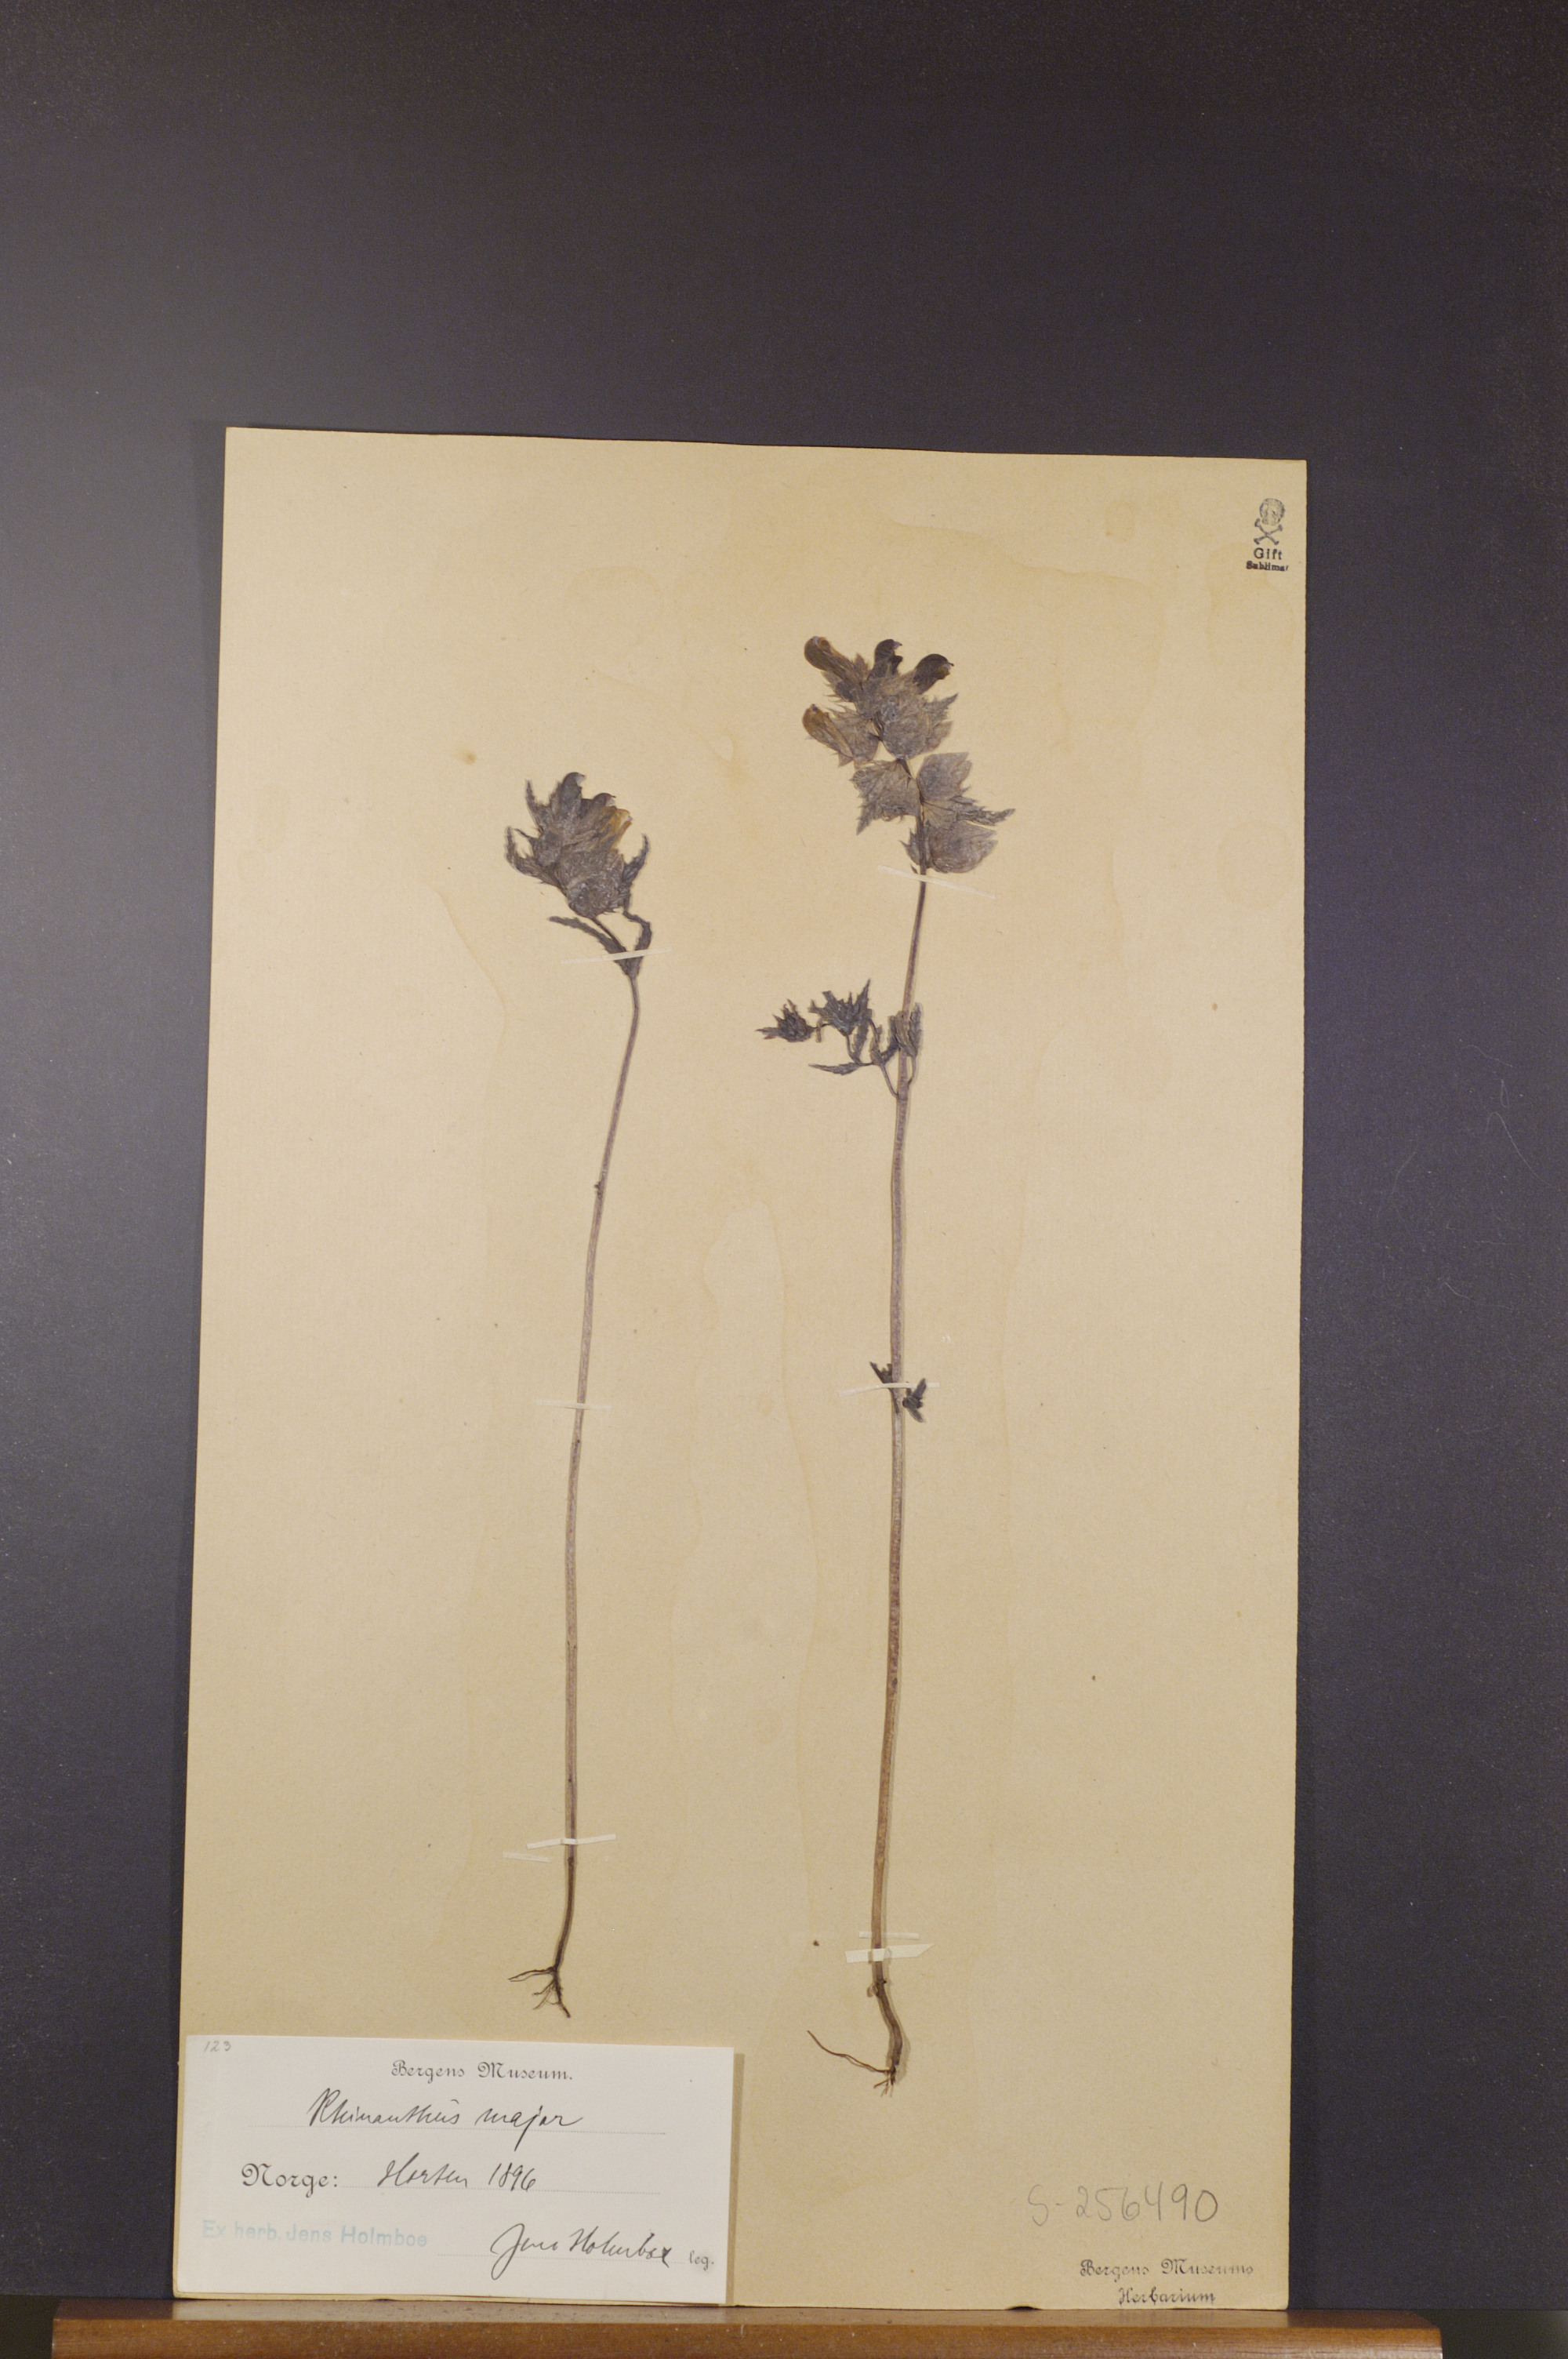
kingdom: Plantae
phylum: Tracheophyta
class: Magnoliopsida
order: Lamiales
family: Orobanchaceae
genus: Rhinanthus
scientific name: Rhinanthus serotinus
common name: Late-flowering yellow rattle
